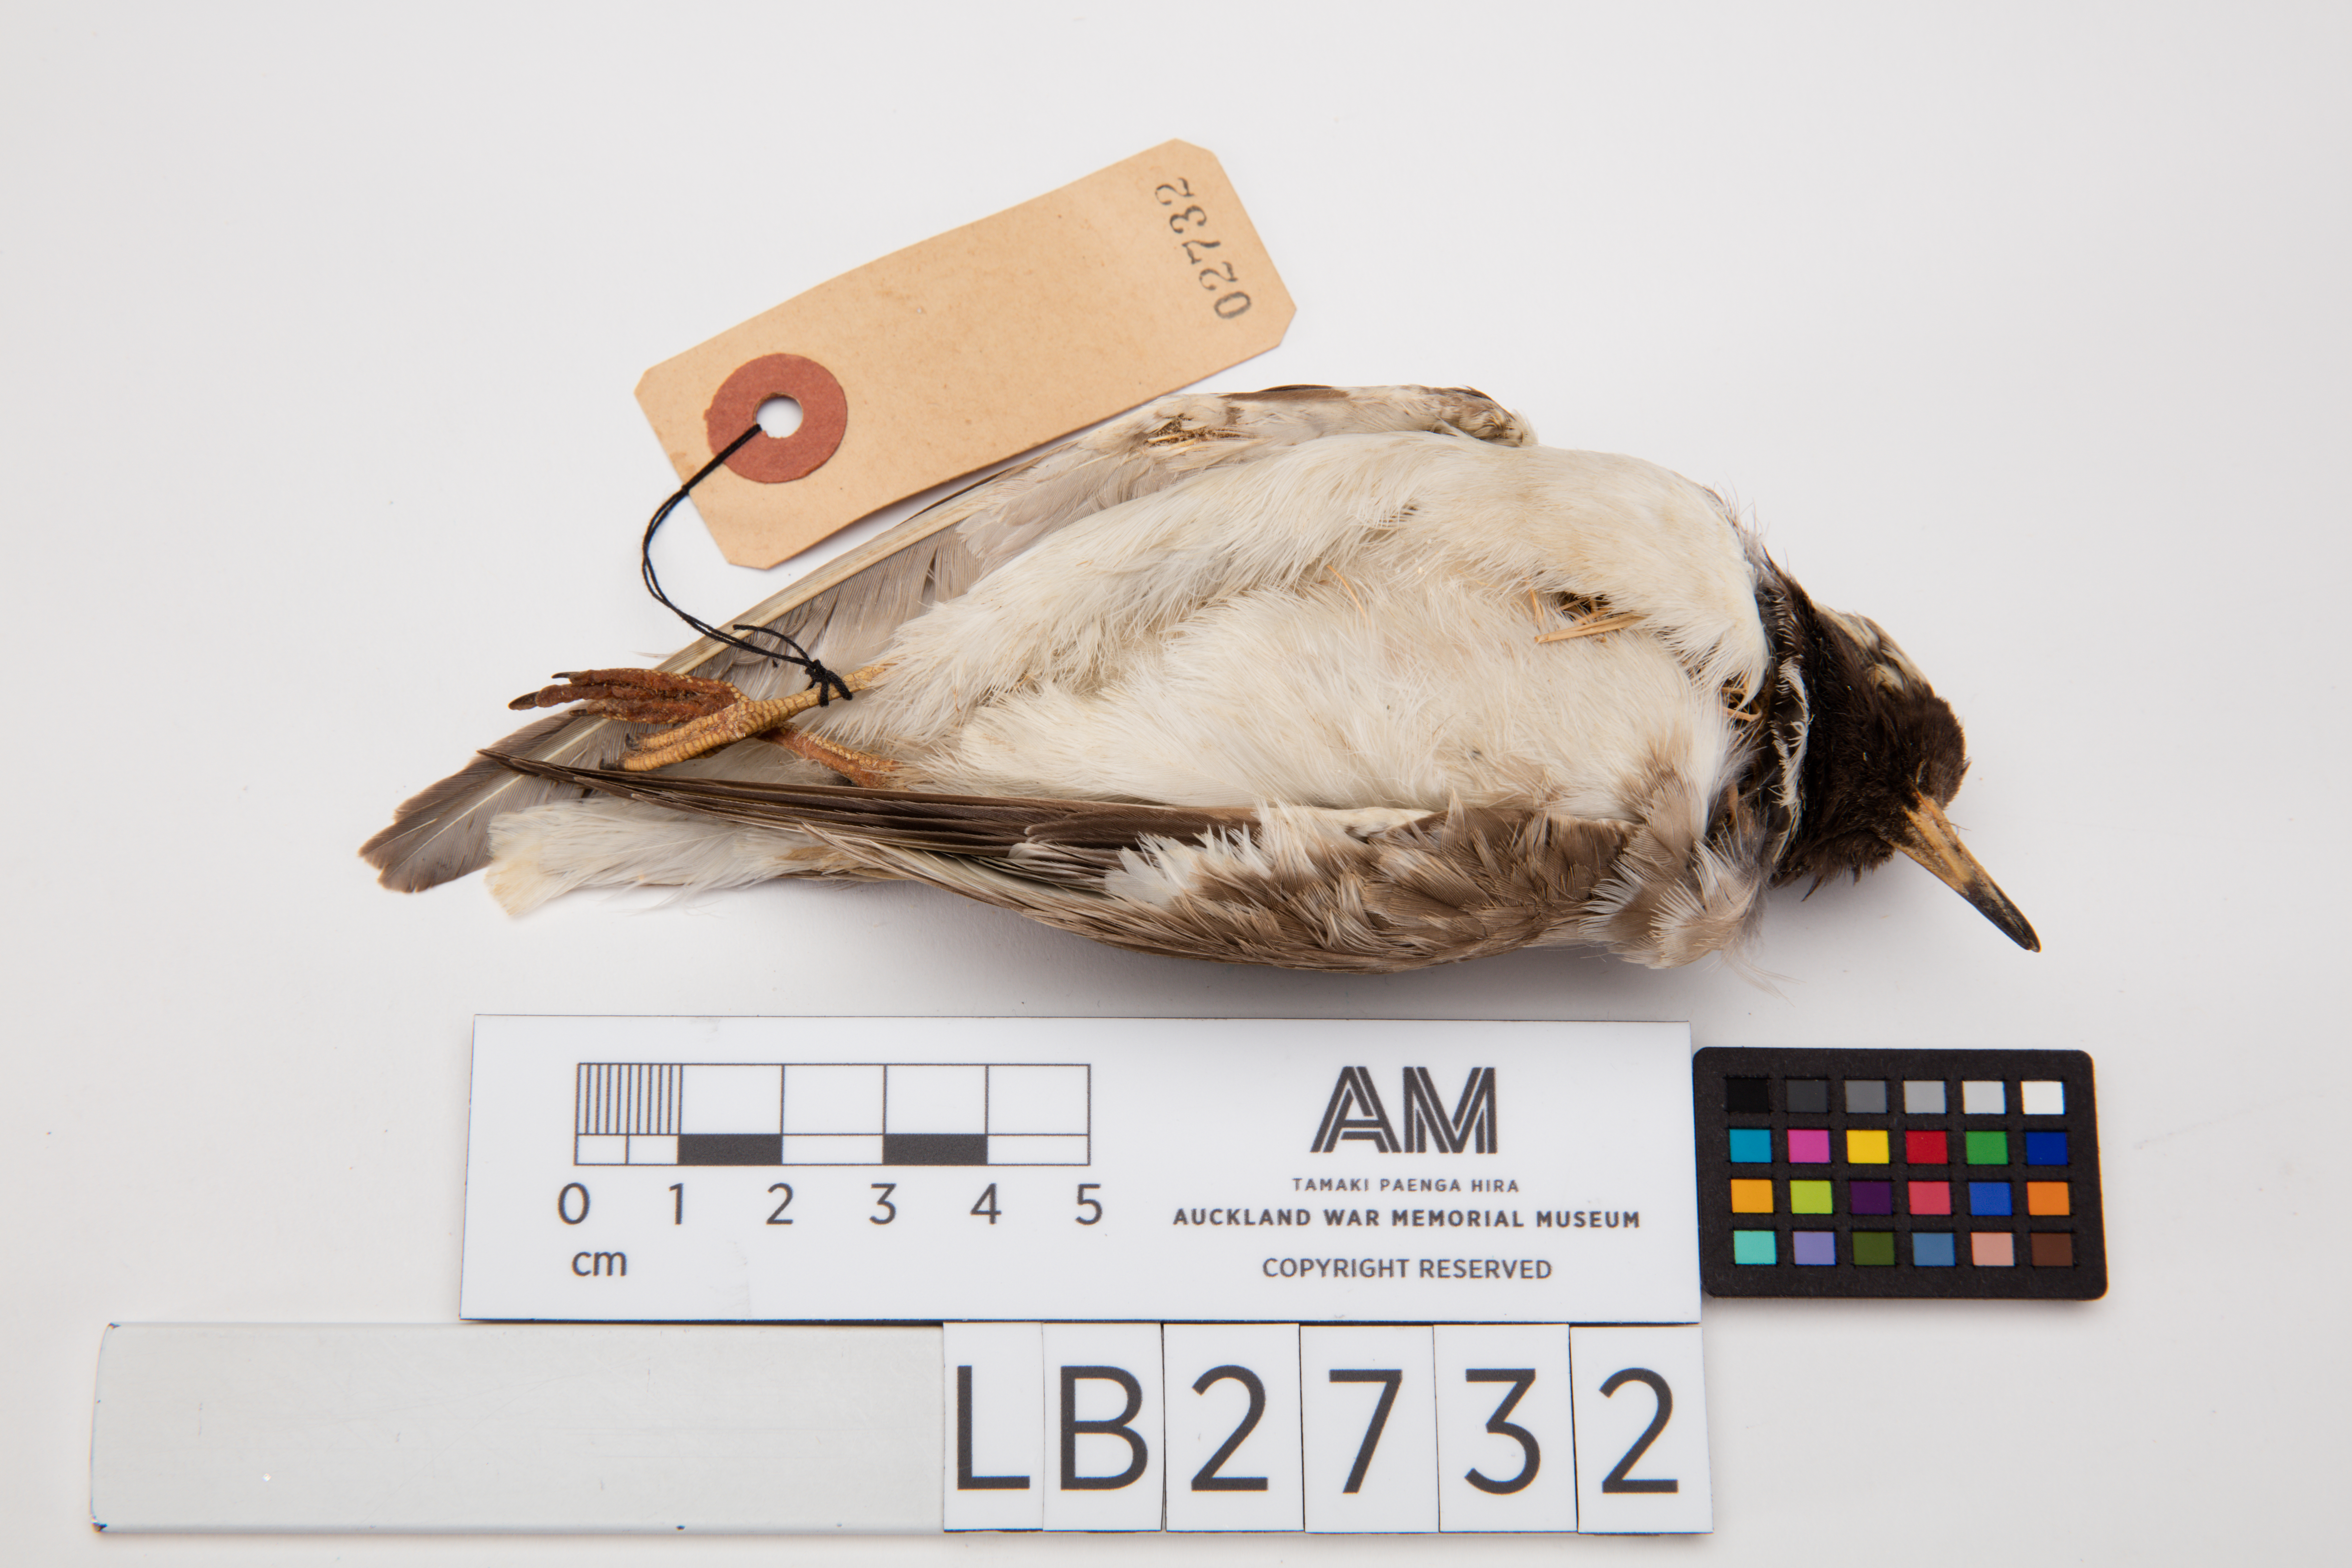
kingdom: Animalia
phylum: Chordata
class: Aves
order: Charadriiformes
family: Charadriidae
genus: Thinornis
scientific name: Thinornis novaeseelandiae
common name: Shore dotterel
